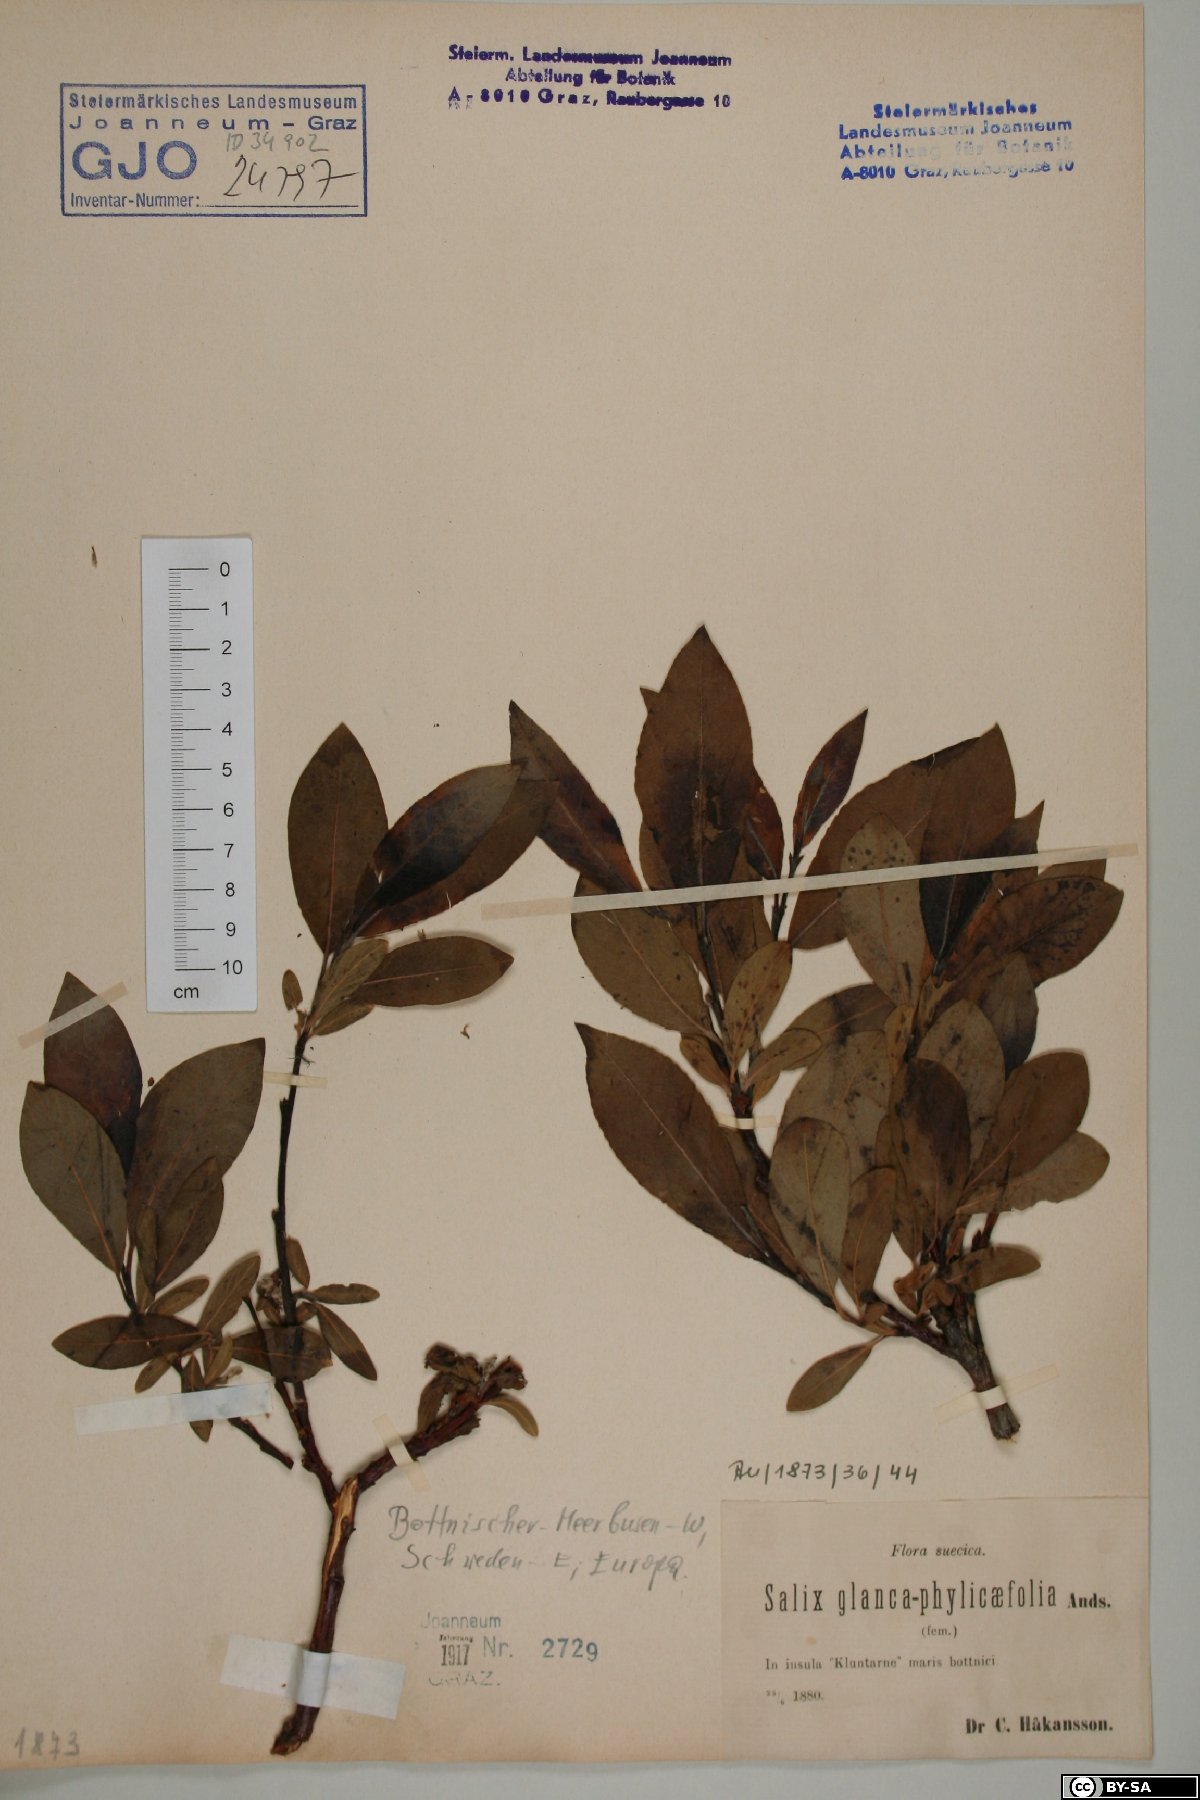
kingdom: Plantae
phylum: Tracheophyta
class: Magnoliopsida
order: Malpighiales
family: Salicaceae
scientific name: Salicaceae
